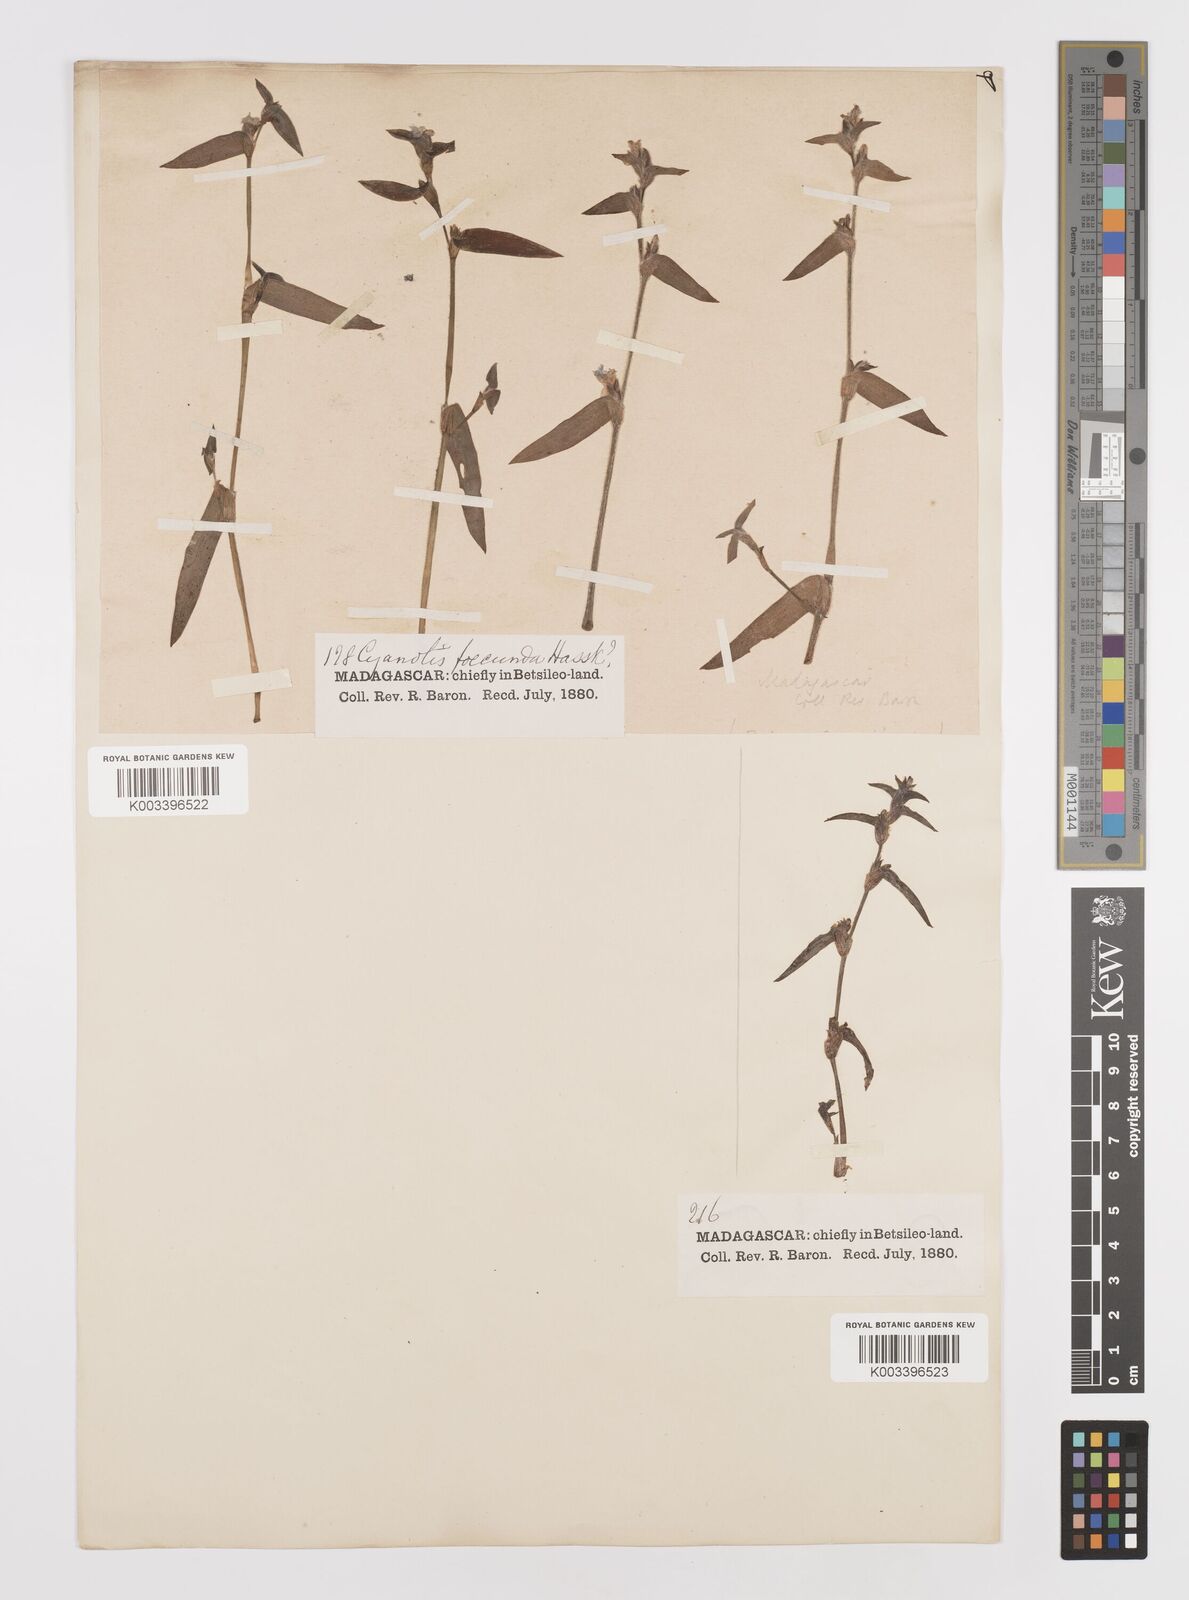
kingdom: Plantae
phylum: Tracheophyta
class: Liliopsida
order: Commelinales
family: Commelinaceae
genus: Cyanotis
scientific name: Cyanotis
